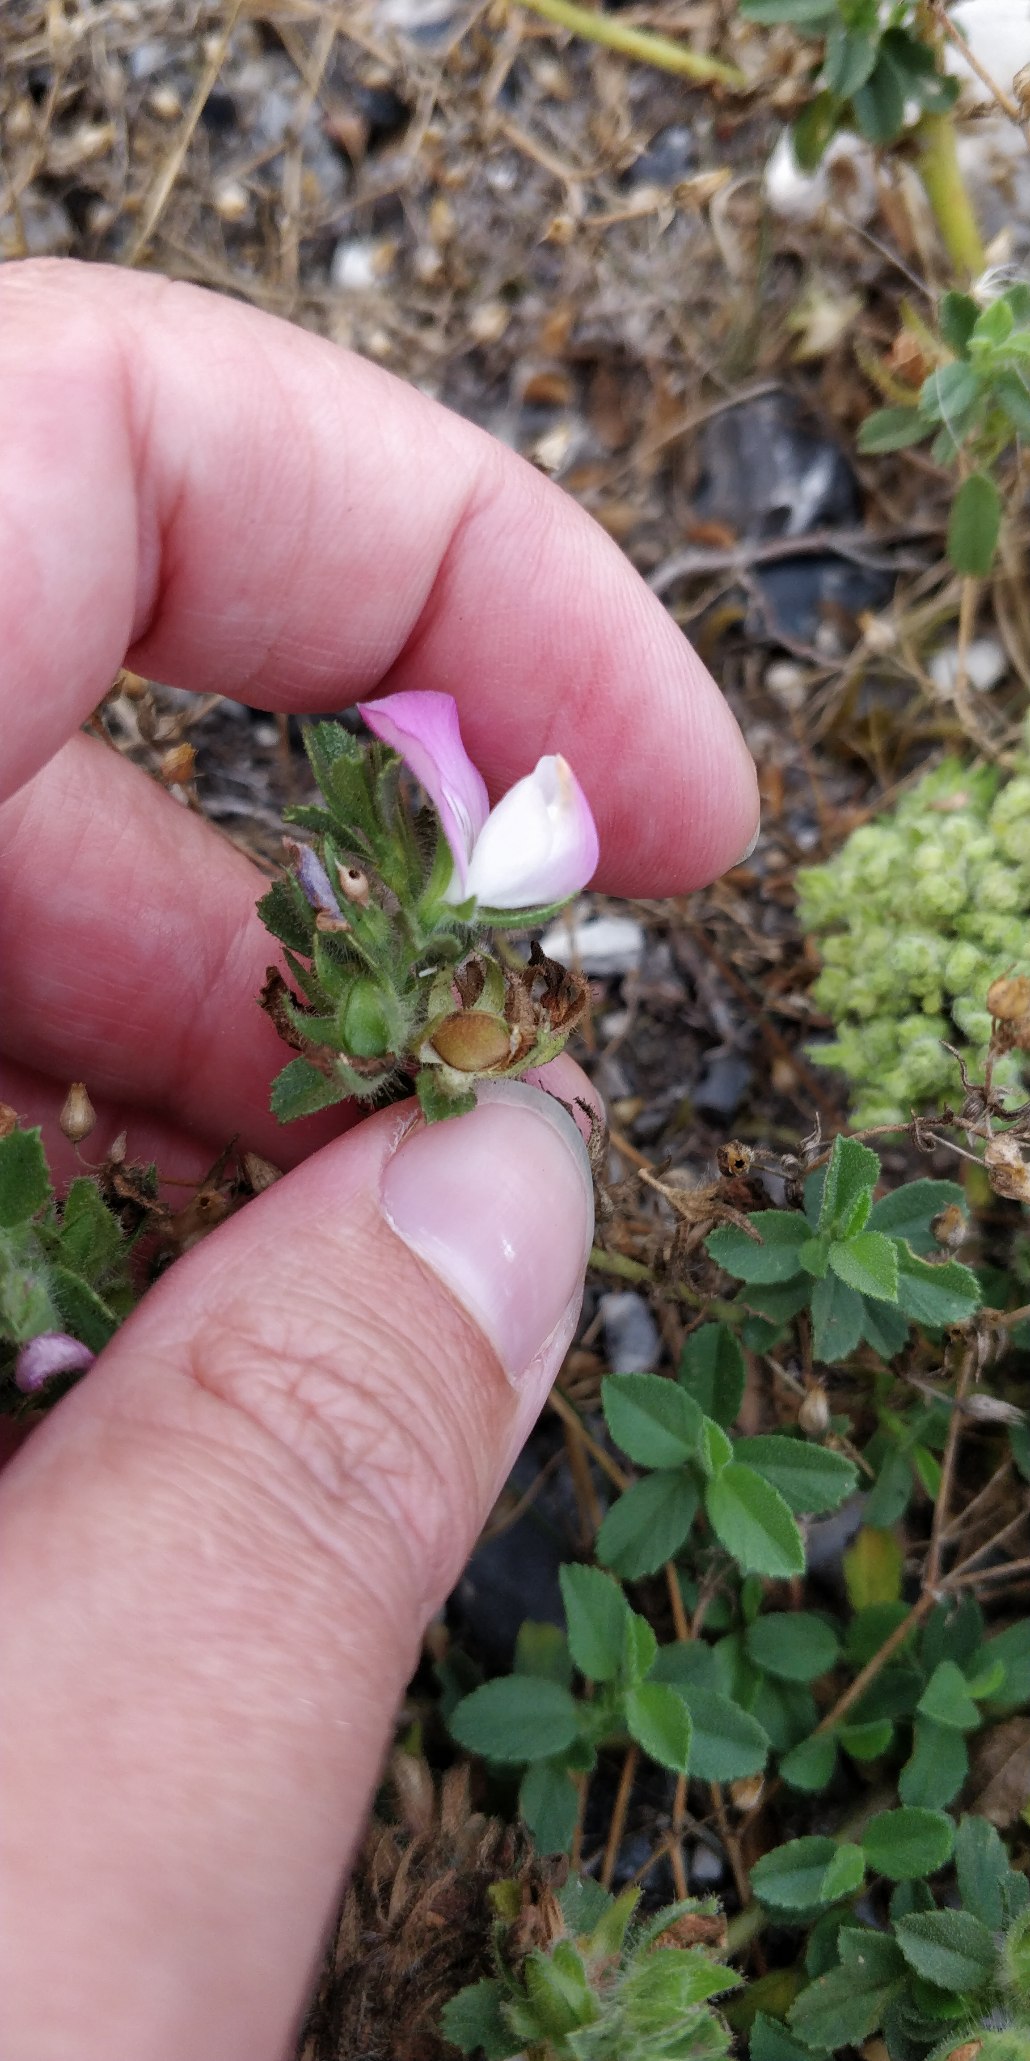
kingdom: Plantae
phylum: Tracheophyta
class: Magnoliopsida
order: Fabales
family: Fabaceae
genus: Ononis
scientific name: Ononis spinosa
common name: Mark-krageklo
